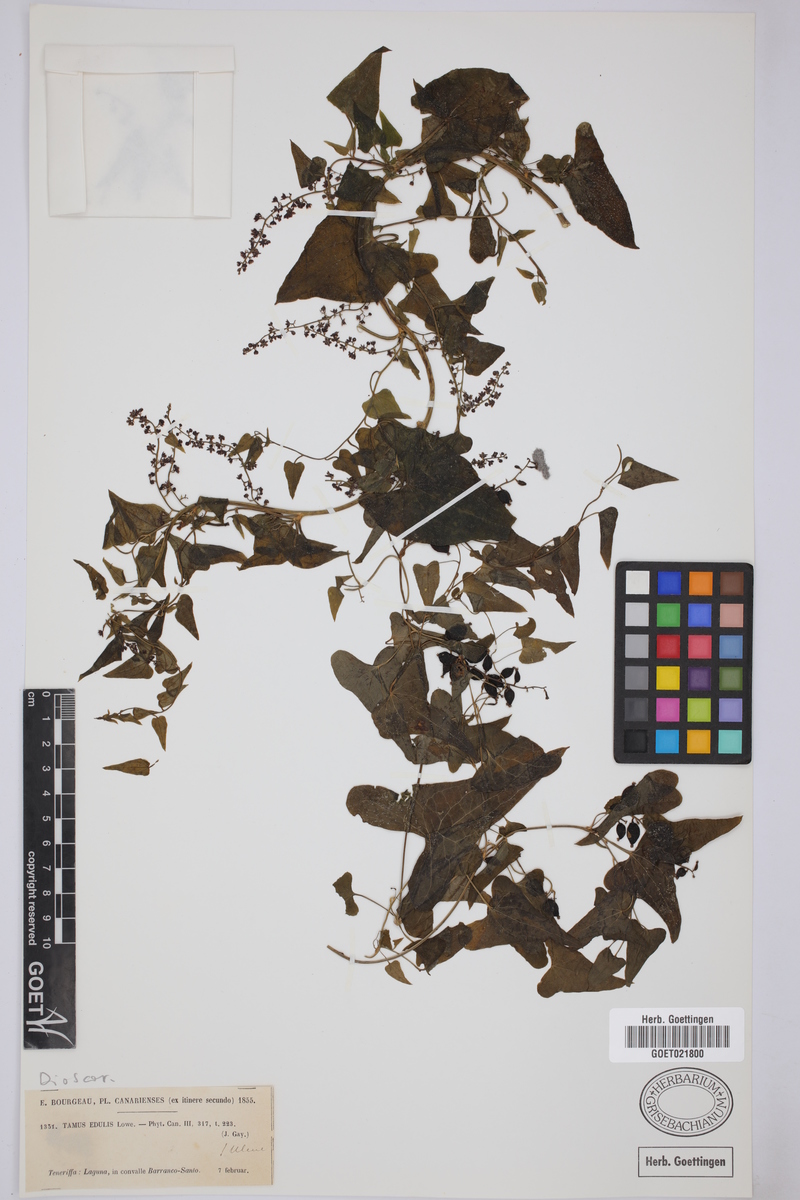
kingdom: Plantae
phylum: Tracheophyta
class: Liliopsida
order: Dioscoreales
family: Dioscoreaceae
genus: Dioscorea
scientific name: Dioscorea communis
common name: Black-bindweed
